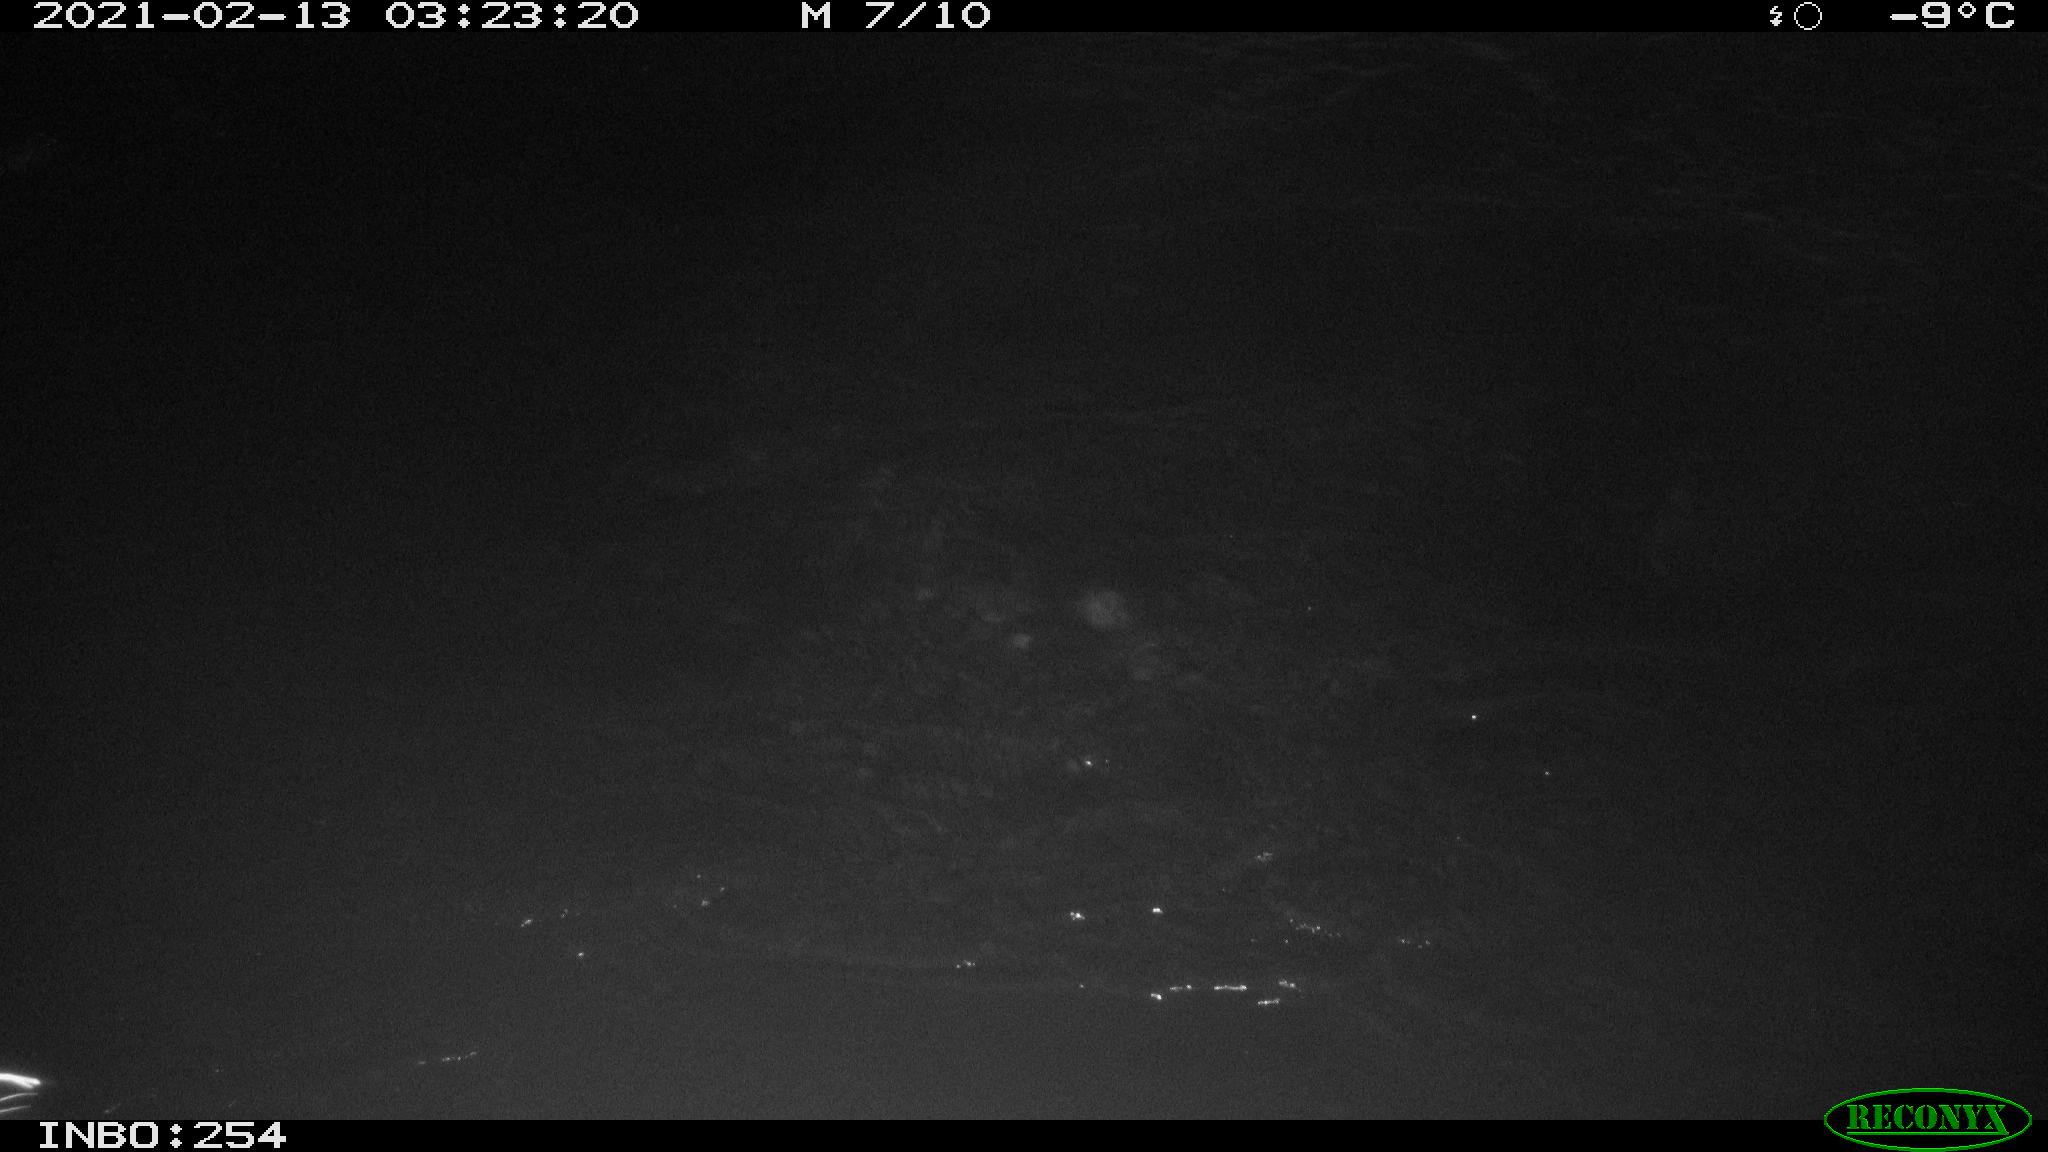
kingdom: Animalia
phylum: Chordata
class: Aves
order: Anseriformes
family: Anatidae
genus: Anas
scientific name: Anas
